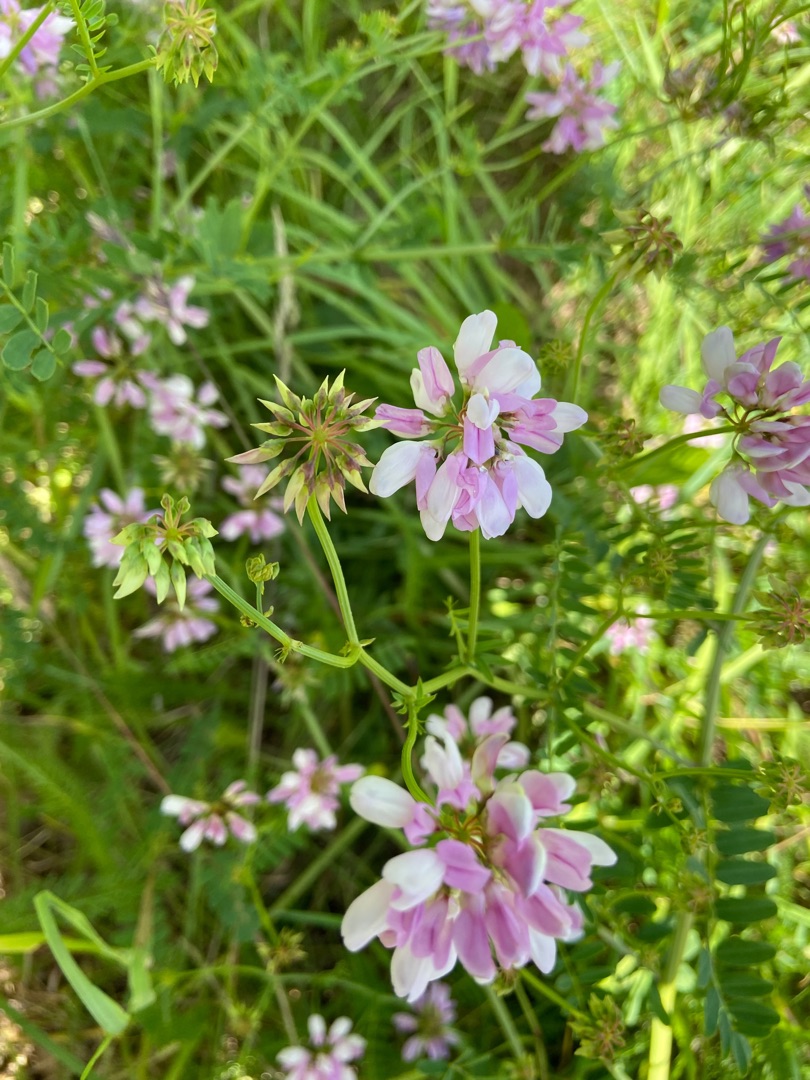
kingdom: Plantae
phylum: Tracheophyta
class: Magnoliopsida
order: Fabales
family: Fabaceae
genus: Coronilla
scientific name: Coronilla varia
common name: Giftig kronvikke
